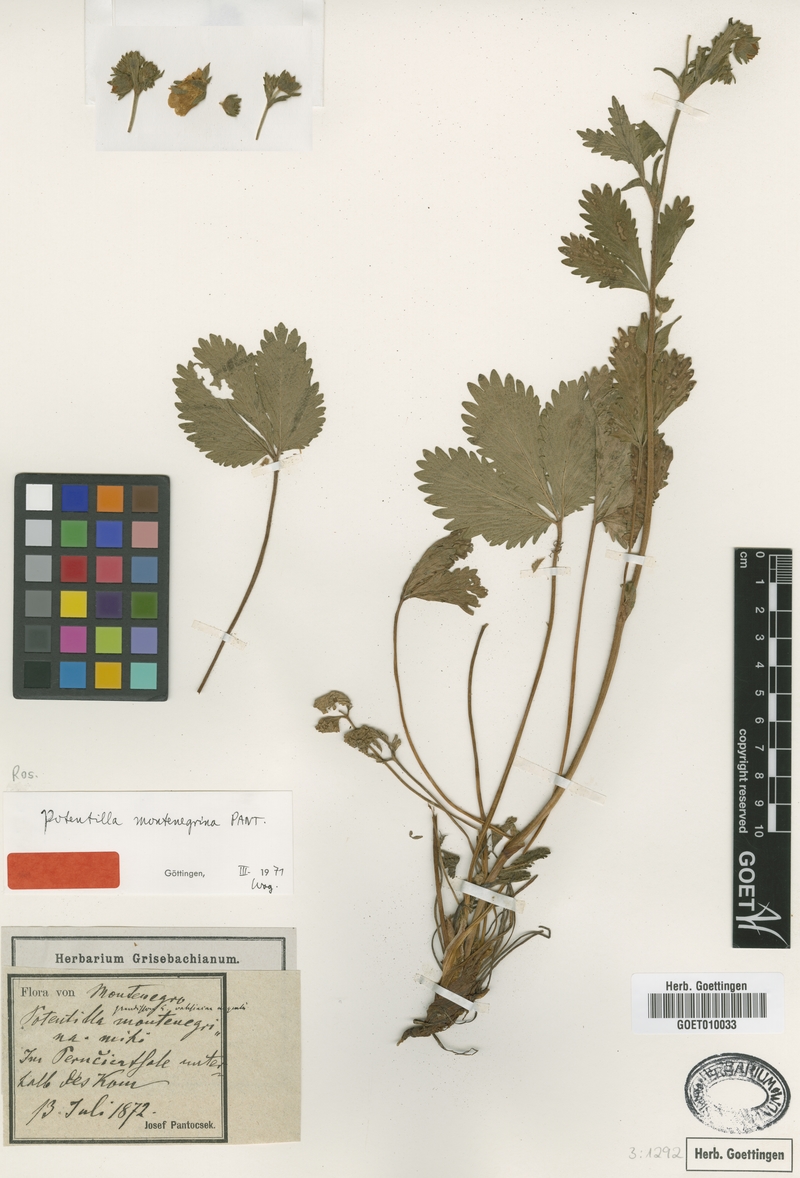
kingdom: Plantae
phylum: Tracheophyta
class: Magnoliopsida
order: Rosales
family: Rosaceae
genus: Potentilla
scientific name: Potentilla montenegrina
